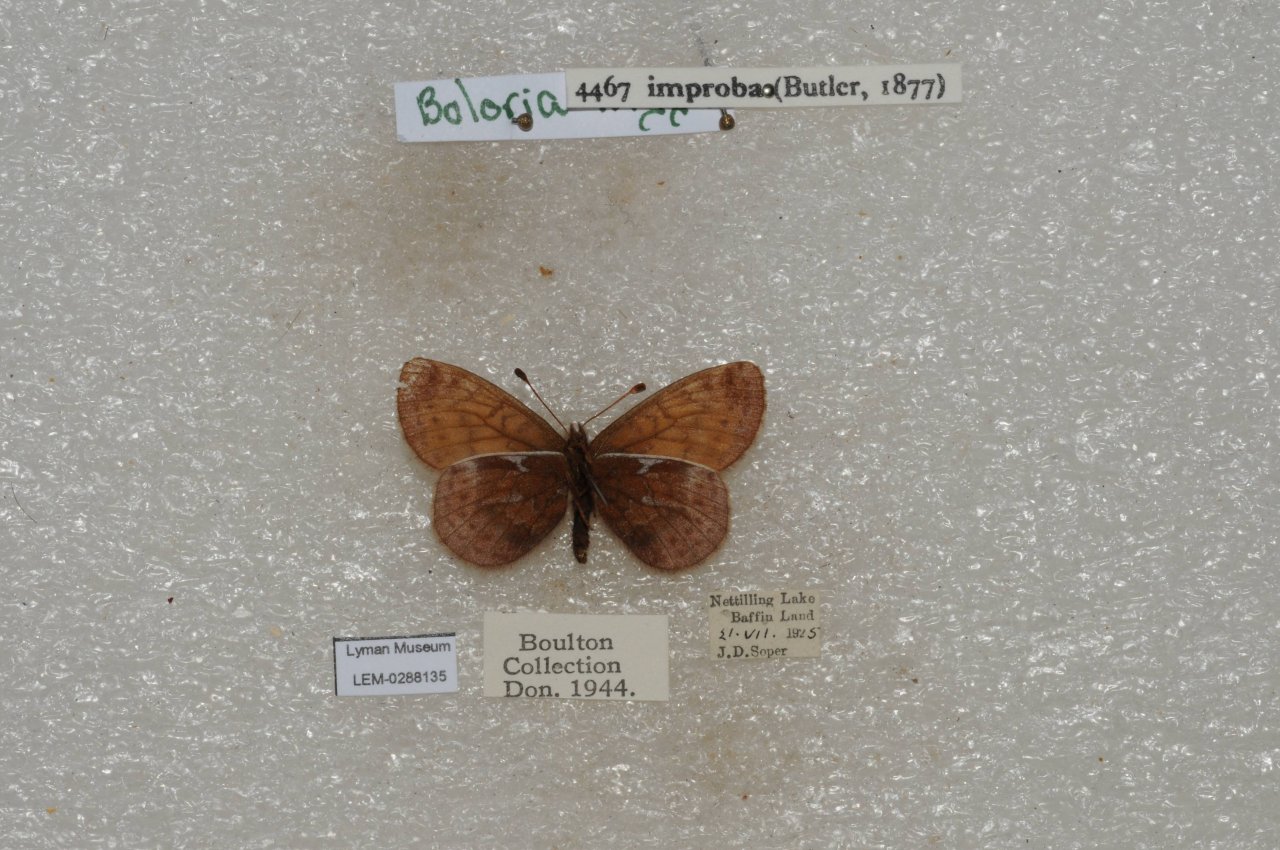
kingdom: Animalia
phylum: Arthropoda
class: Insecta
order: Lepidoptera
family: Nymphalidae
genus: Clossiana
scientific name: Clossiana improba
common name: Dingy Fritillary
